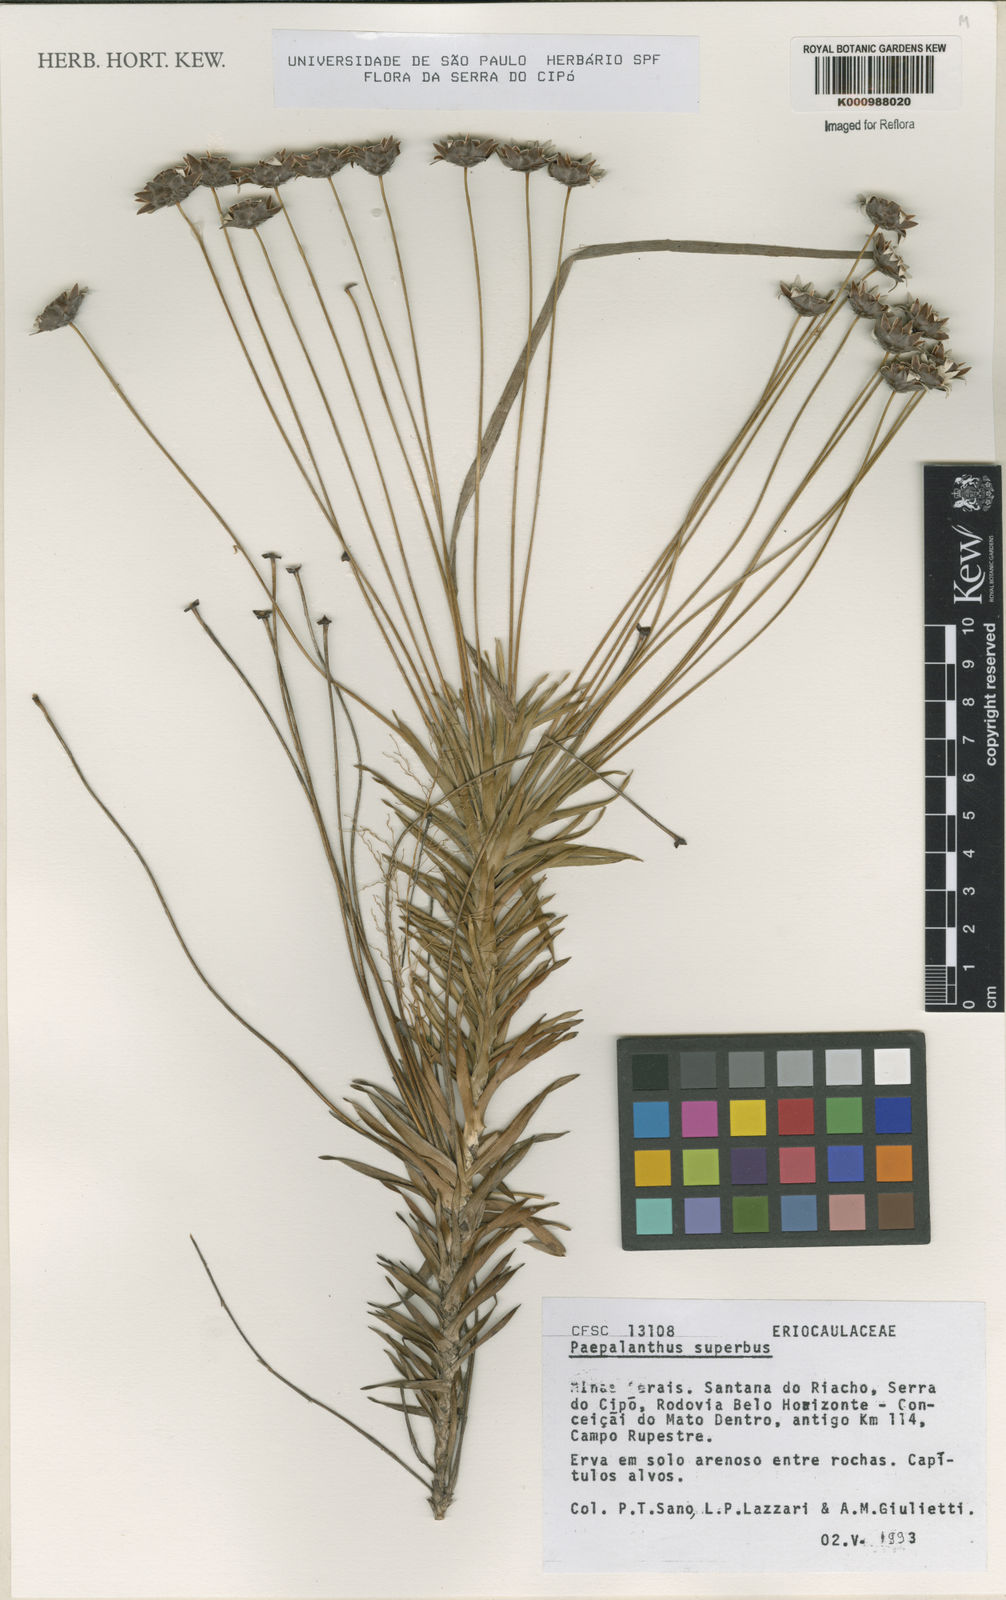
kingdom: Plantae
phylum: Tracheophyta
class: Liliopsida
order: Poales
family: Eriocaulaceae
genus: Paepalanthus
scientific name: Paepalanthus superbus
